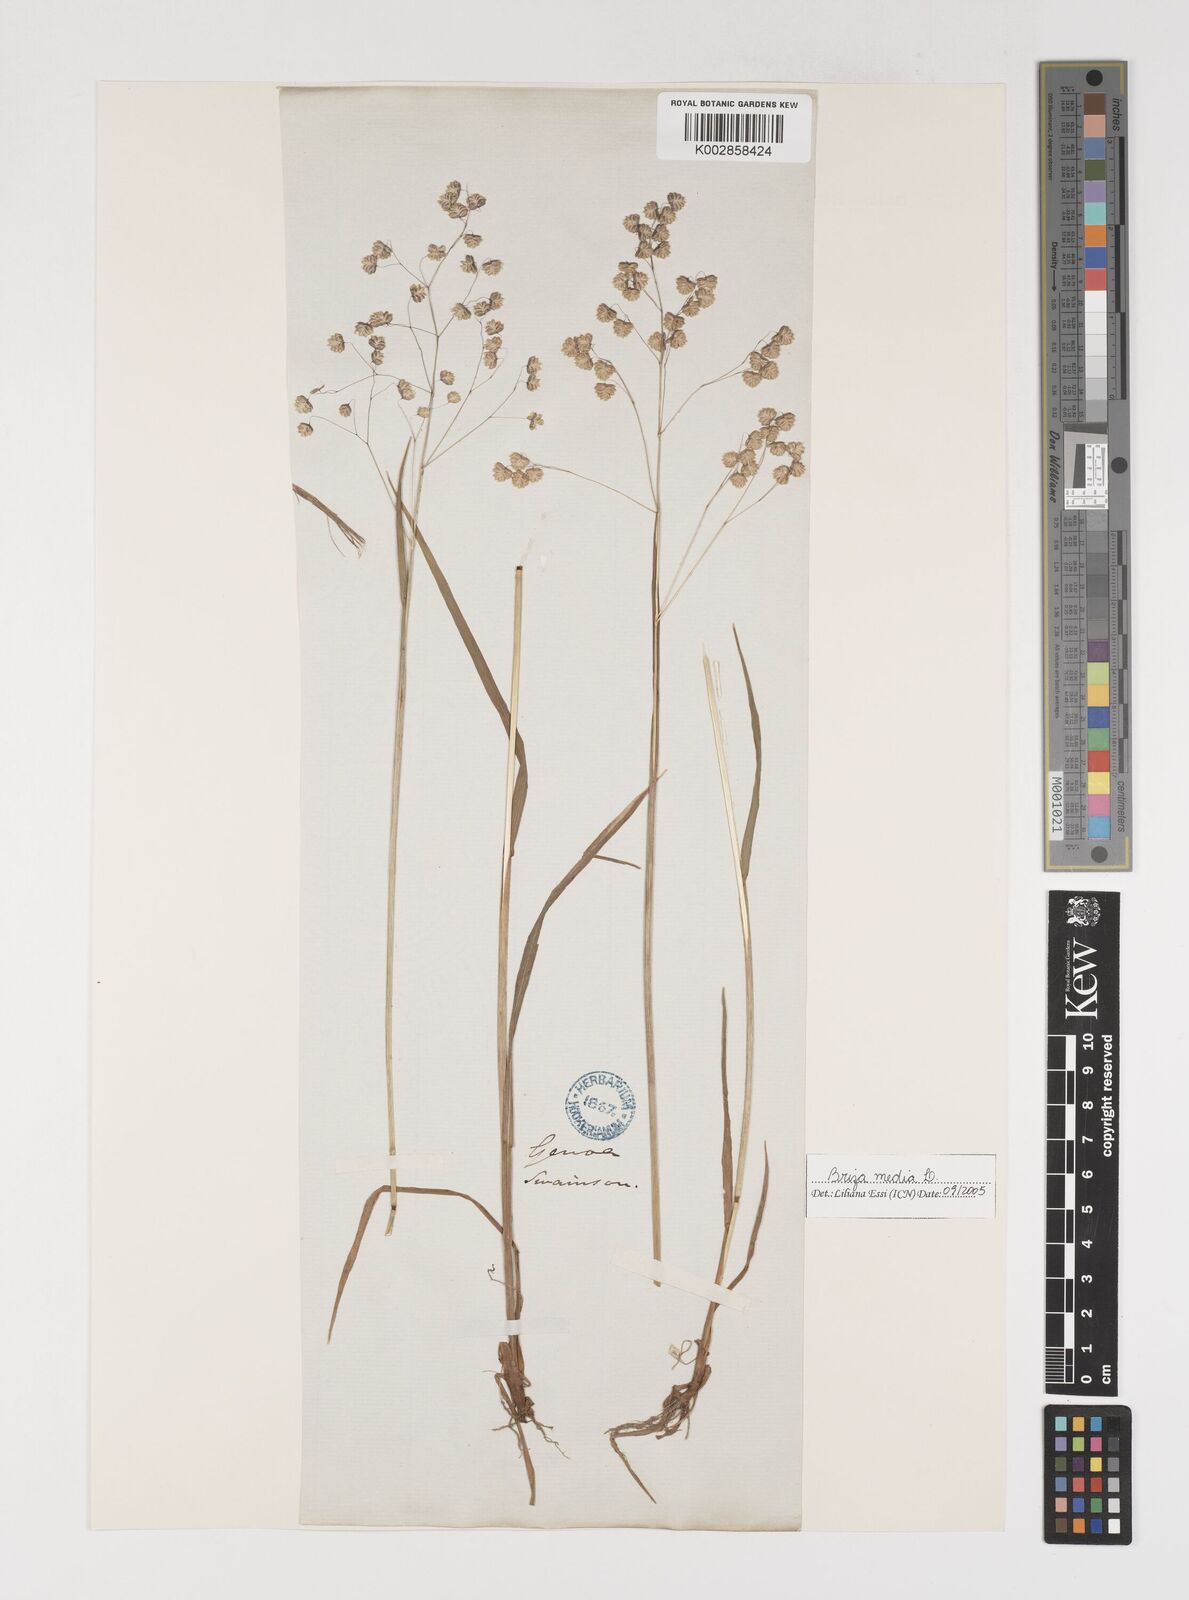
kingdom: Plantae
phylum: Tracheophyta
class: Liliopsida
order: Poales
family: Poaceae
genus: Briza
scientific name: Briza media
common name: Quaking grass
